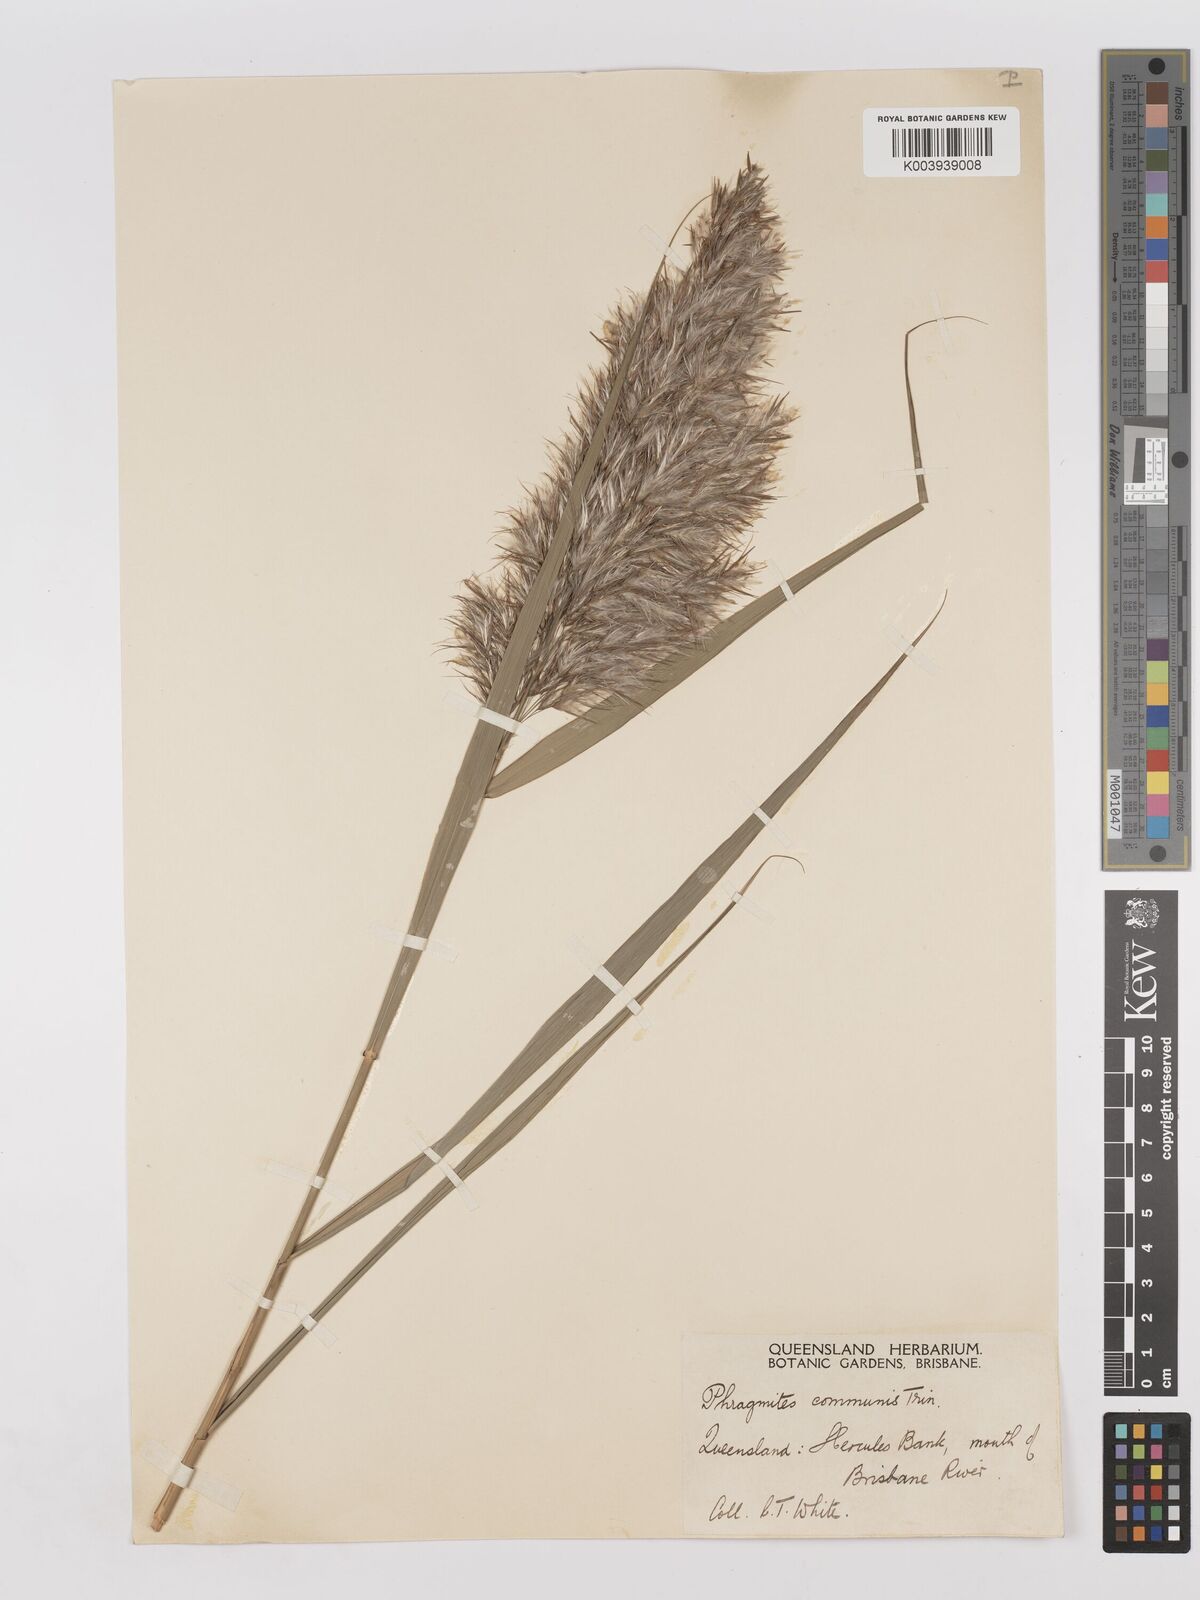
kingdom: Plantae
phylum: Tracheophyta
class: Liliopsida
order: Poales
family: Poaceae
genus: Phragmites
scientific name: Phragmites australis
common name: Common reed
